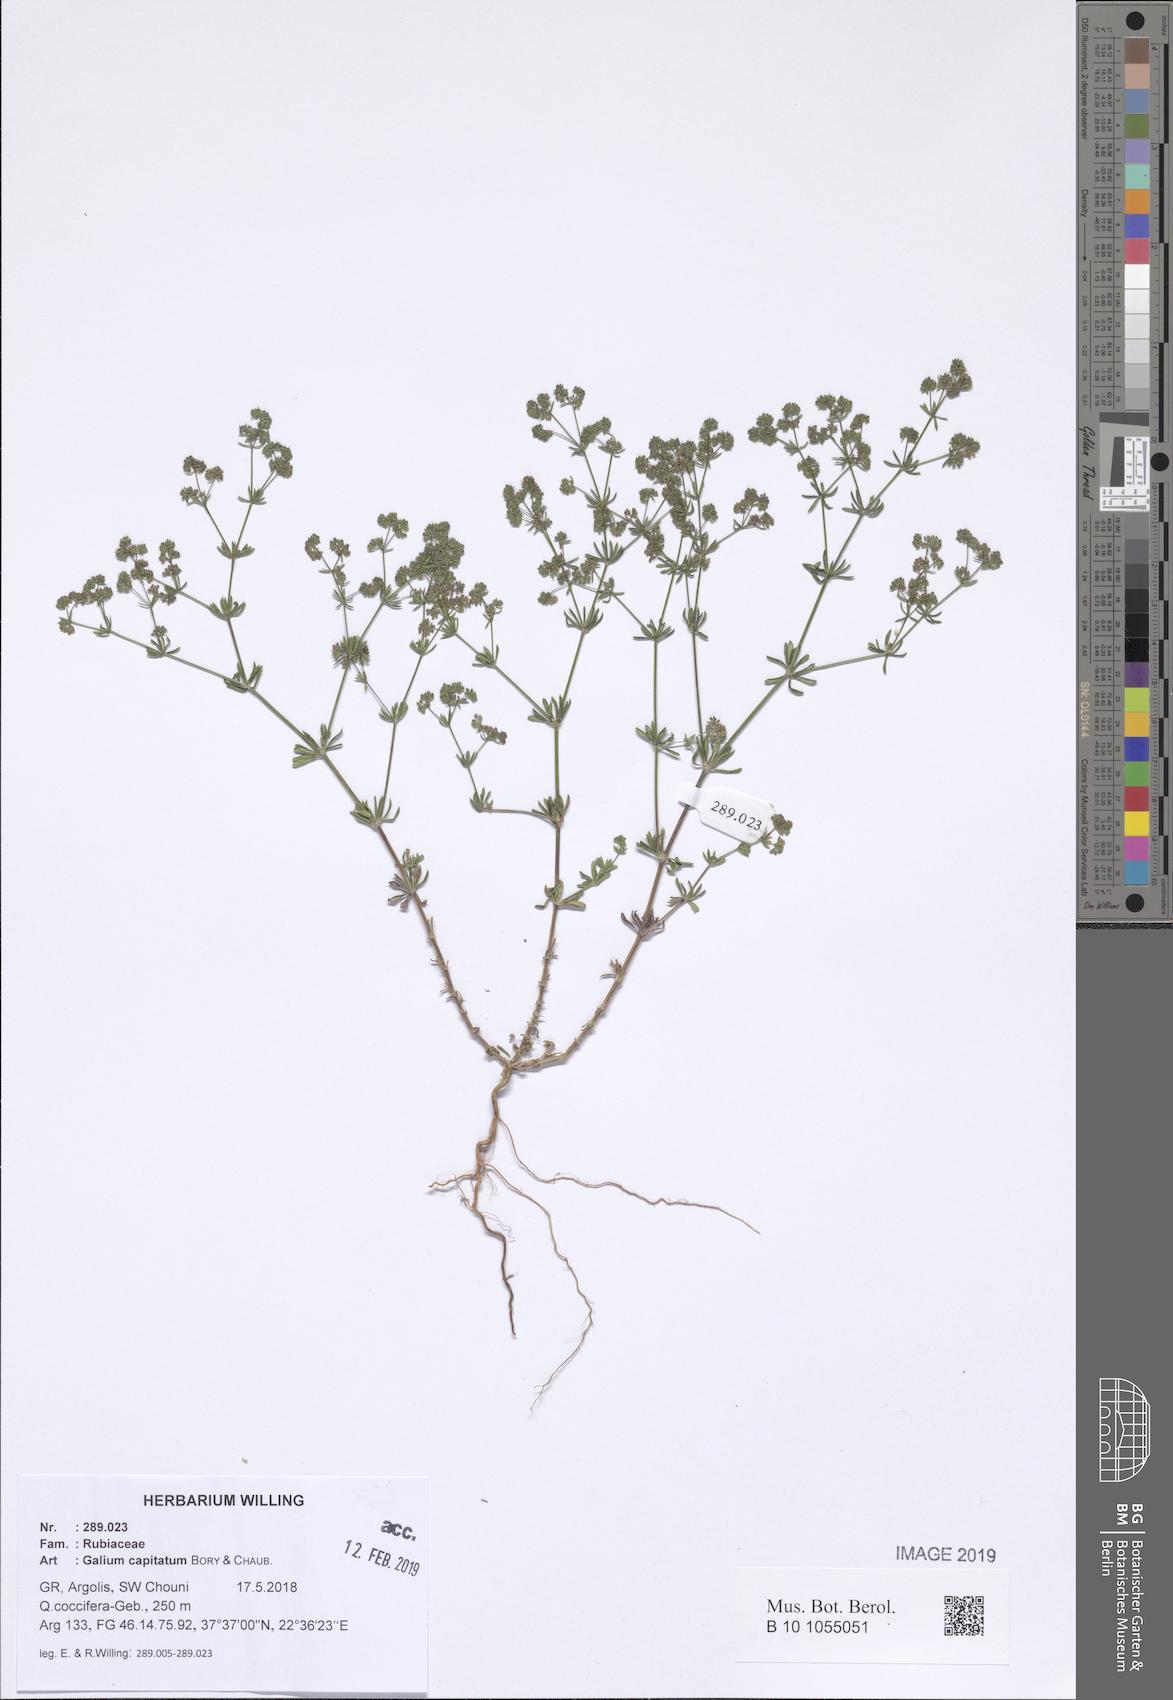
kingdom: Plantae
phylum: Tracheophyta
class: Magnoliopsida
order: Gentianales
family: Rubiaceae
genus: Galium
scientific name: Galium capitatum
